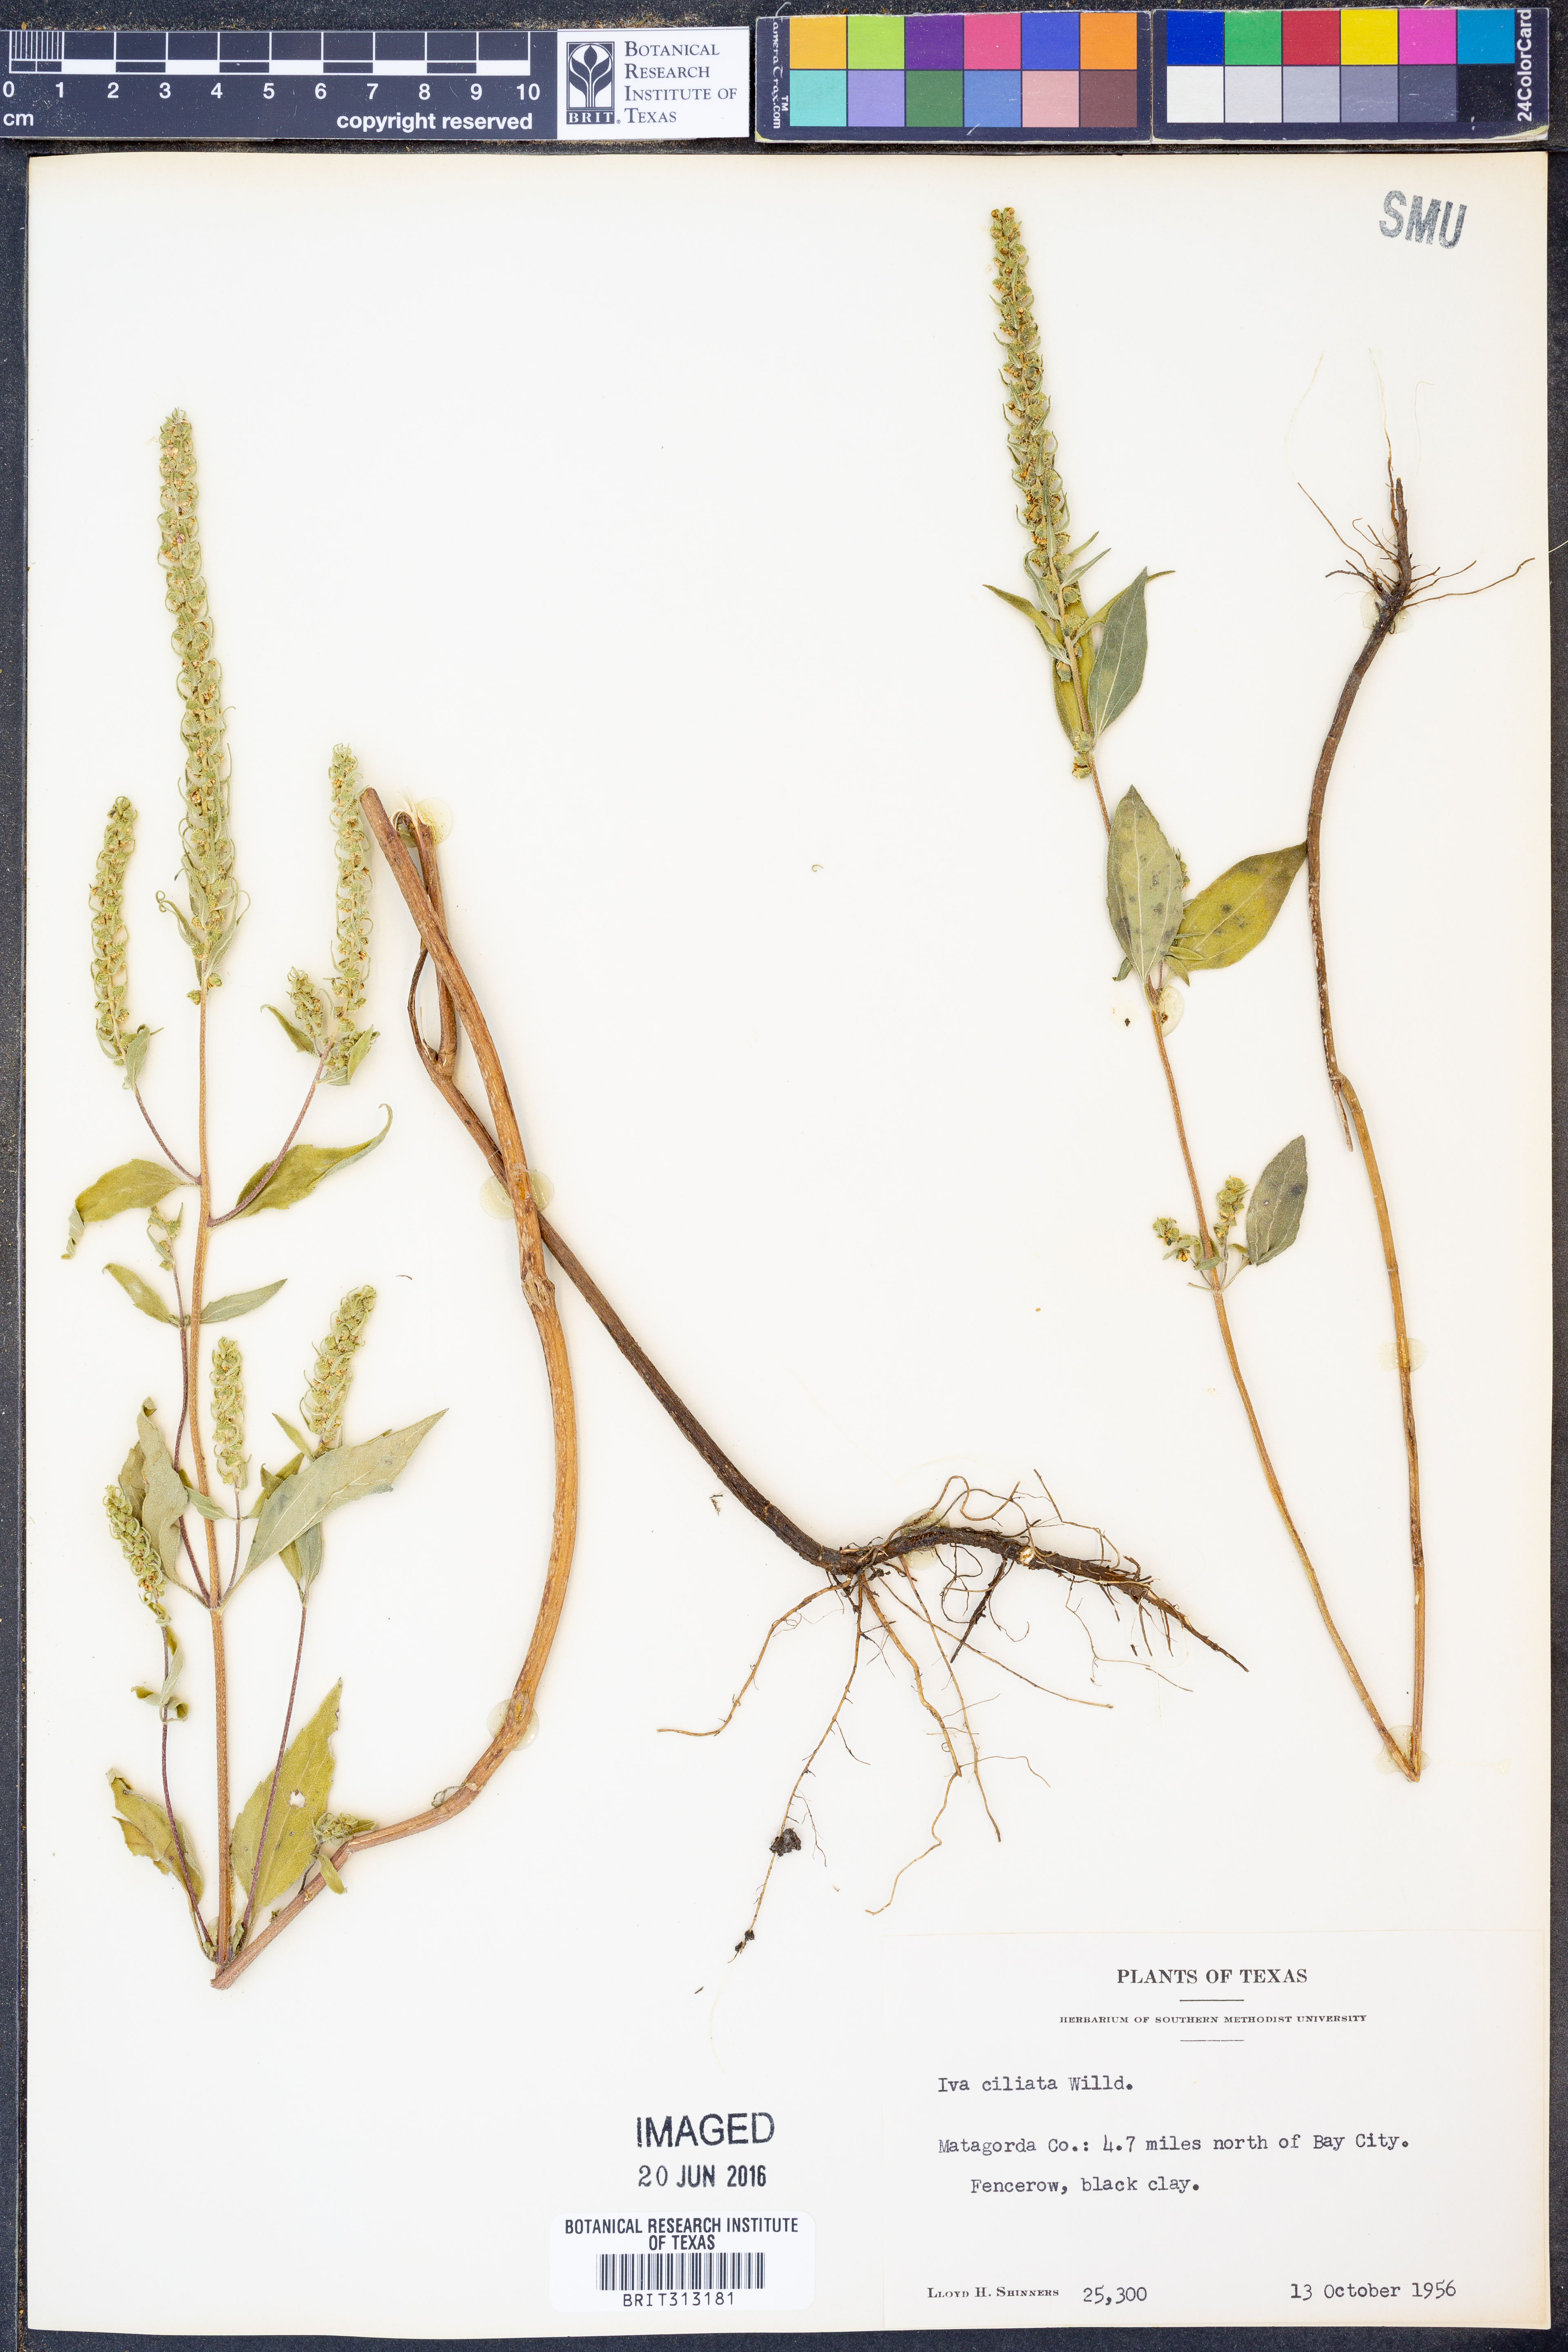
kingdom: Plantae
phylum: Tracheophyta
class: Magnoliopsida
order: Asterales
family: Asteraceae
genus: Iva
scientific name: Iva annua
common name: Marsh-elder
